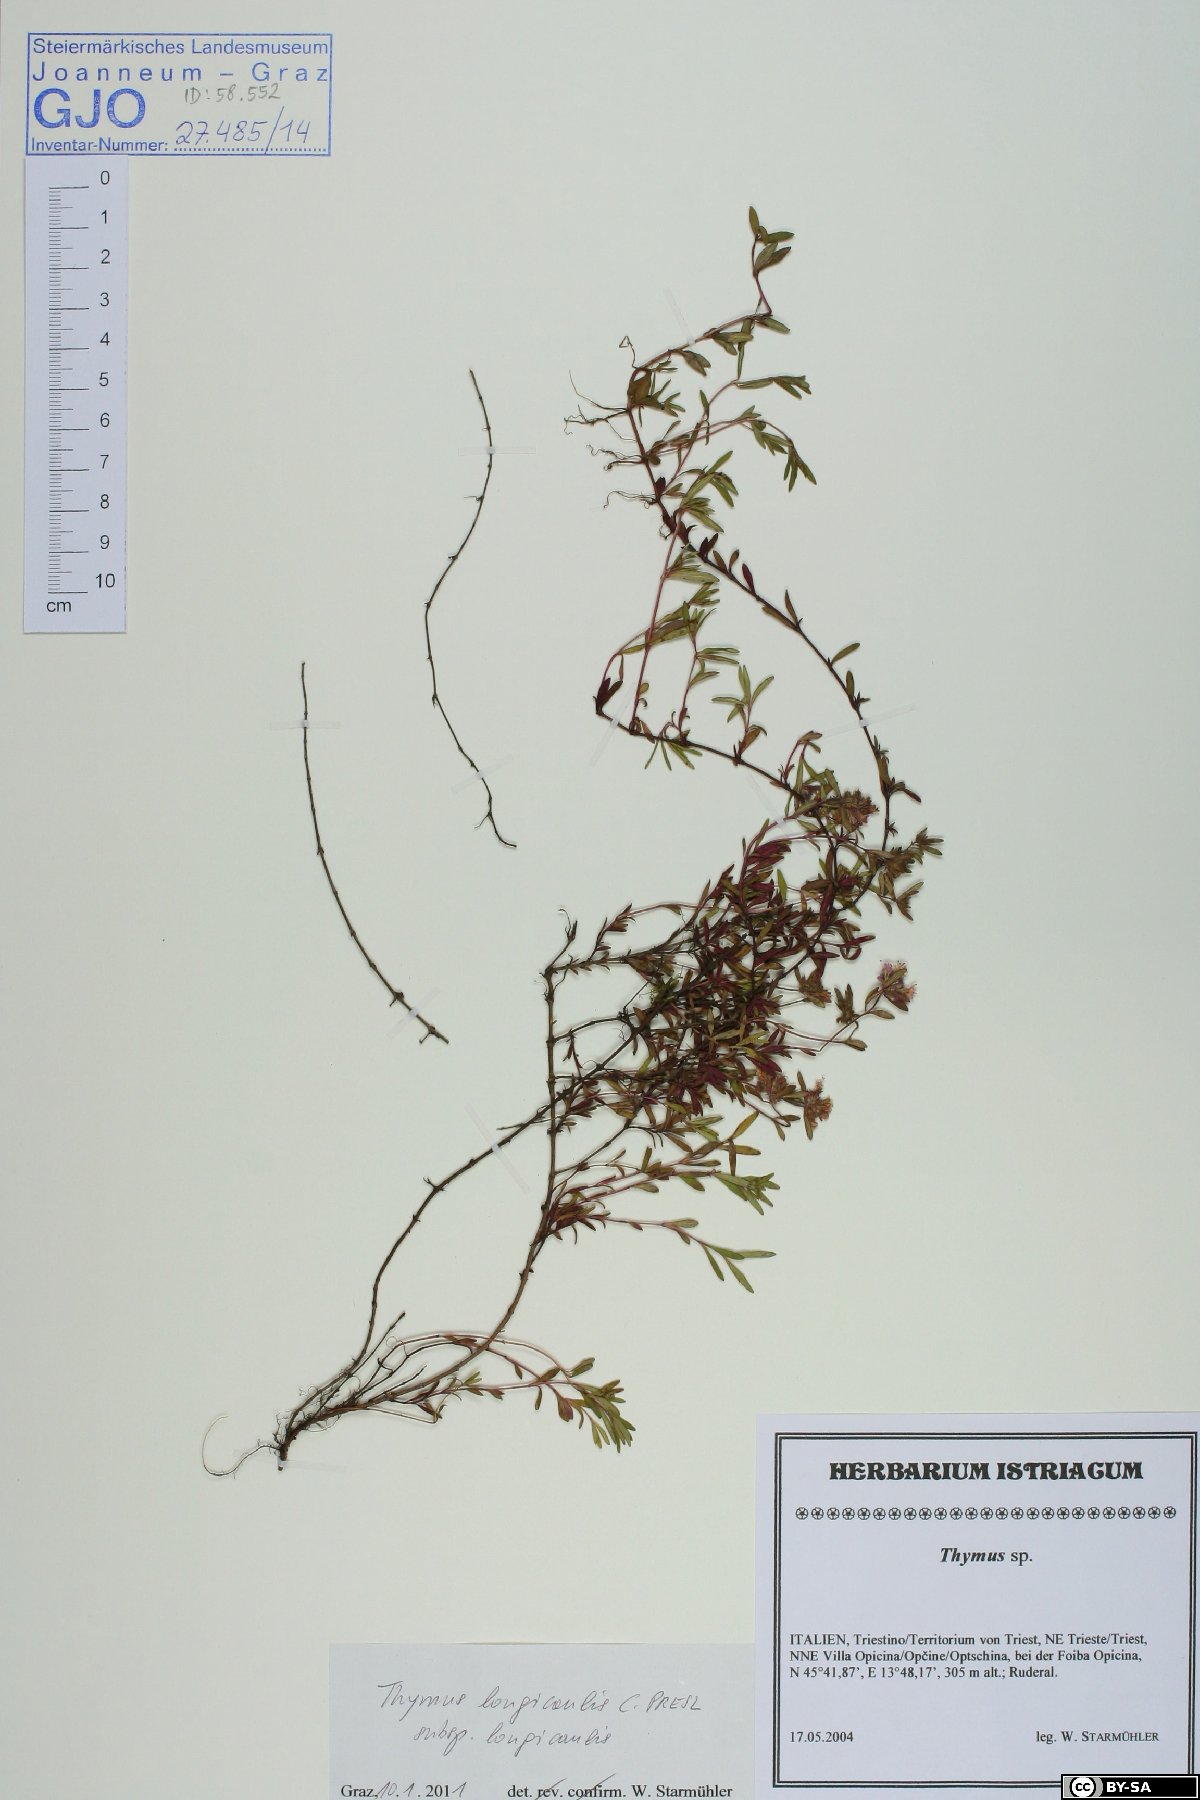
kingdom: Plantae
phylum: Tracheophyta
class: Magnoliopsida
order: Lamiales
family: Lamiaceae
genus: Thymus
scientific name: Thymus longicaulis
